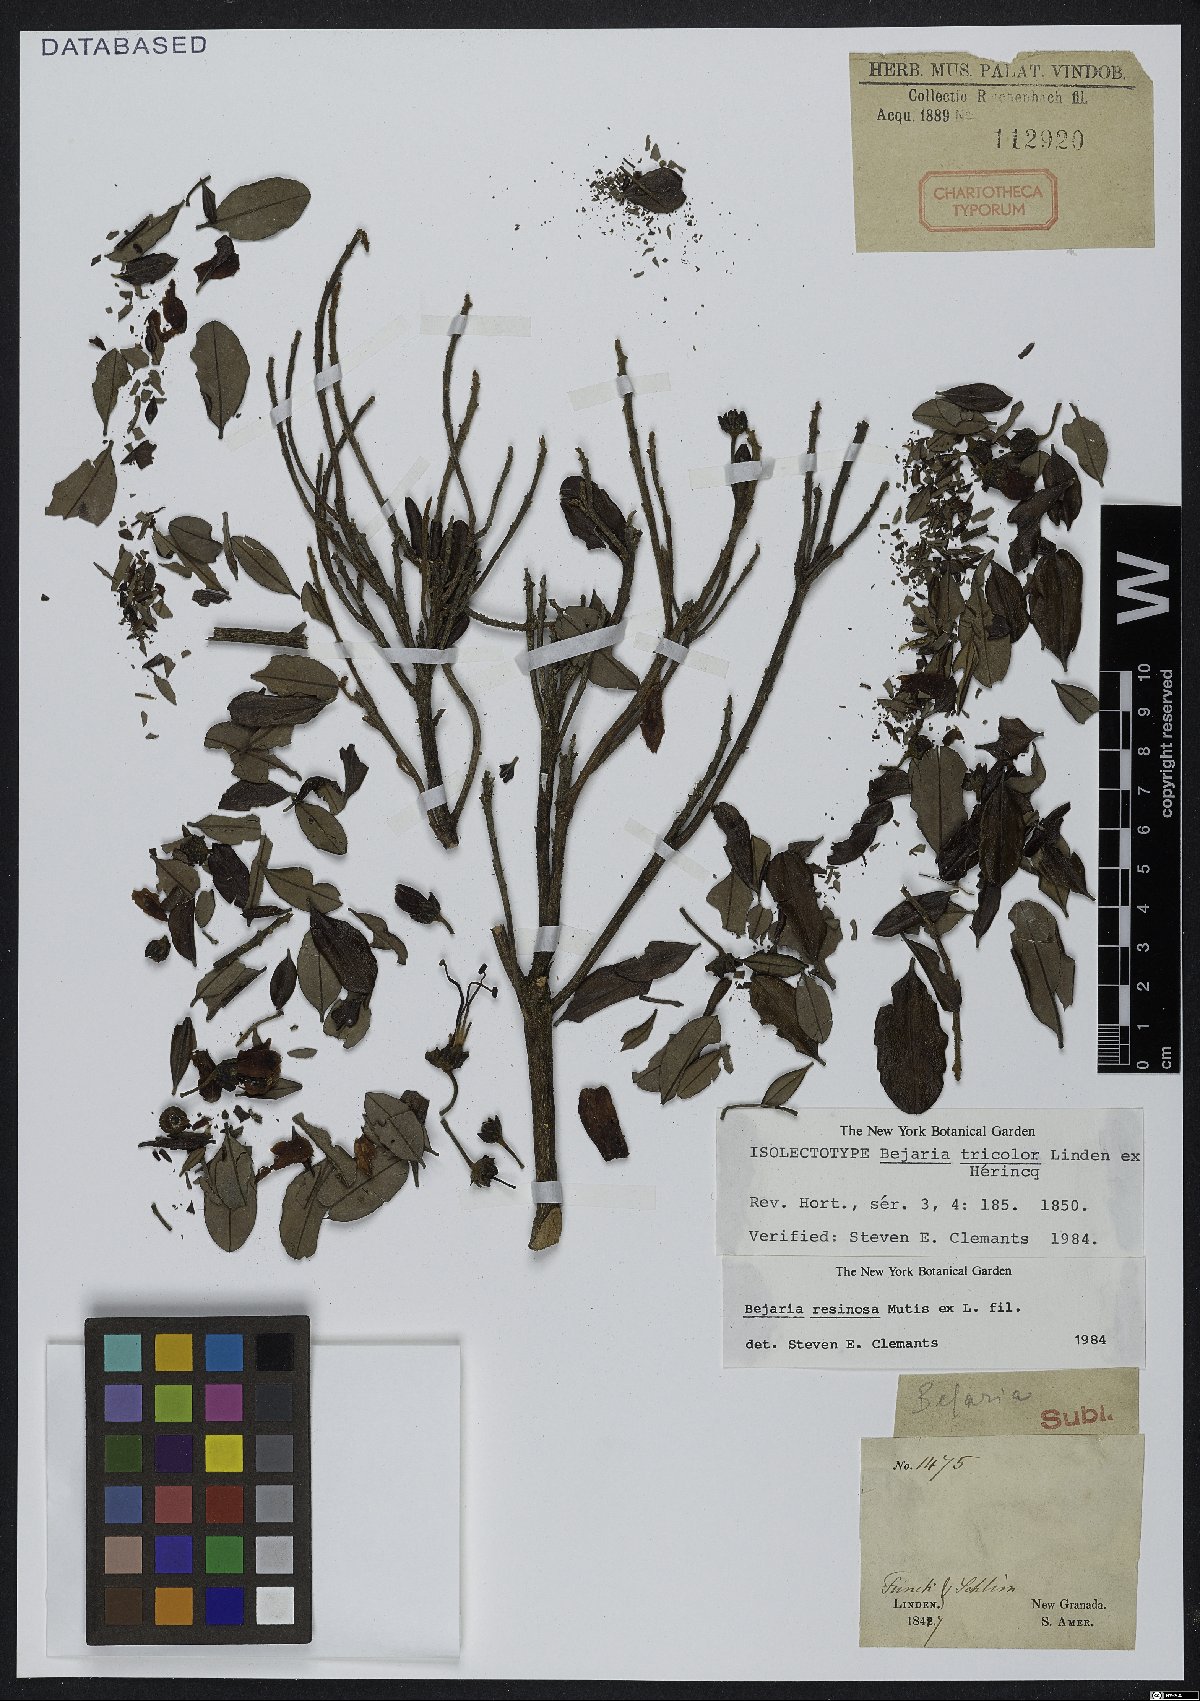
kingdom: Plantae
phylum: Tracheophyta
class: Magnoliopsida
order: Ericales
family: Ericaceae
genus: Bejaria
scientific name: Bejaria resinosa
